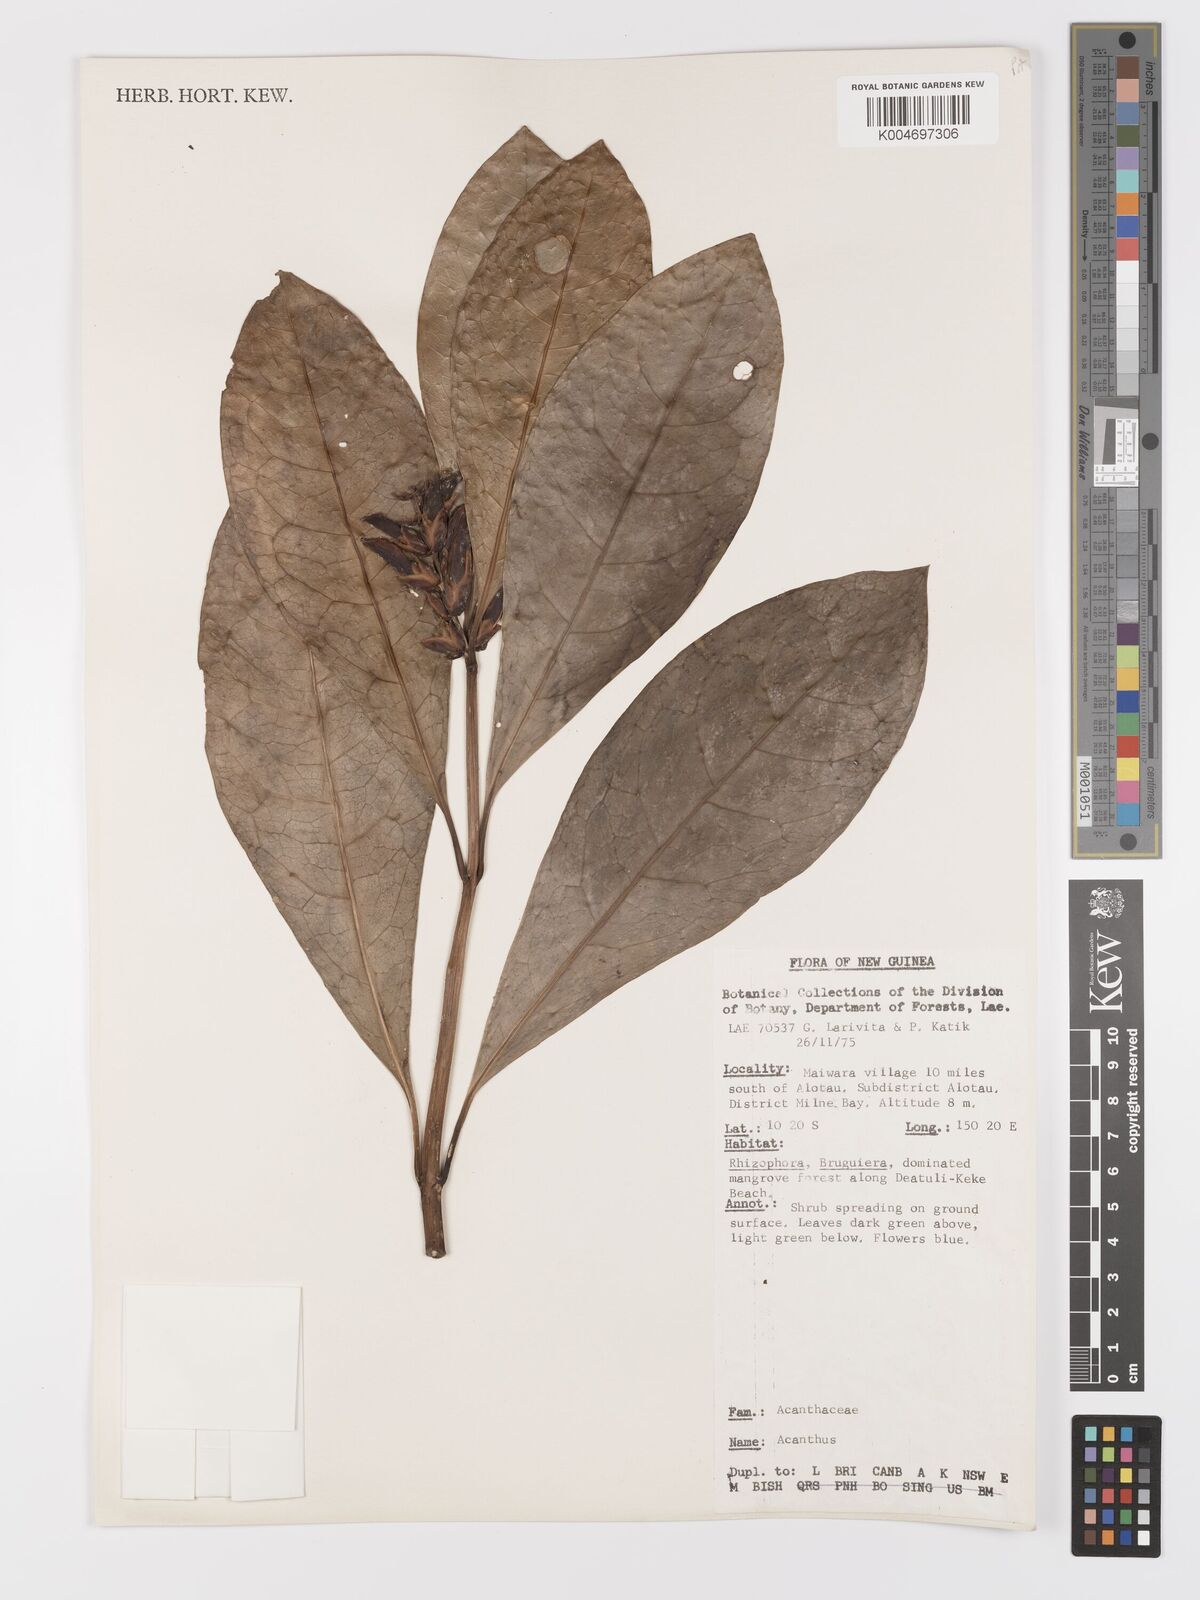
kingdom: Plantae
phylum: Tracheophyta
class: Magnoliopsida
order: Lamiales
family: Acanthaceae
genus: Acanthus
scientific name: Acanthus ilicifolius
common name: Holy mangrove
